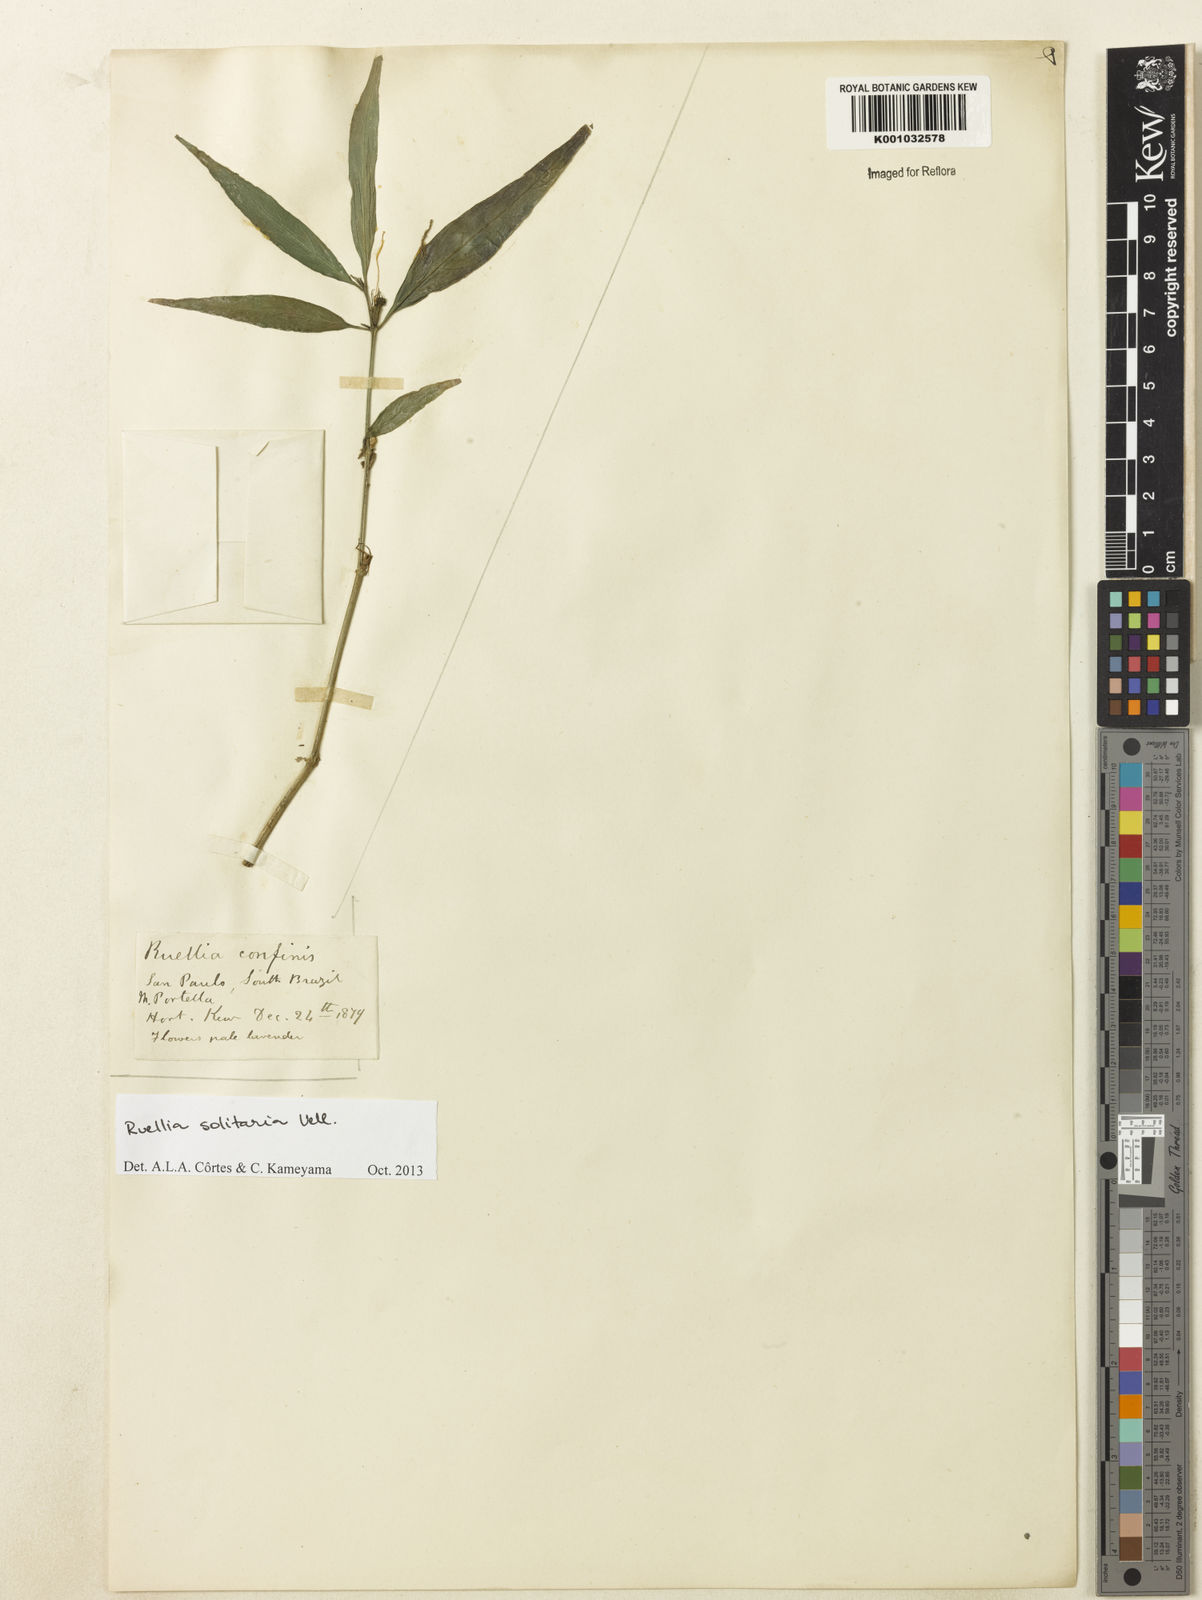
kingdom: Plantae
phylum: Tracheophyta
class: Magnoliopsida
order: Lamiales
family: Acanthaceae
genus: Ruellia
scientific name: Ruellia solitaria
